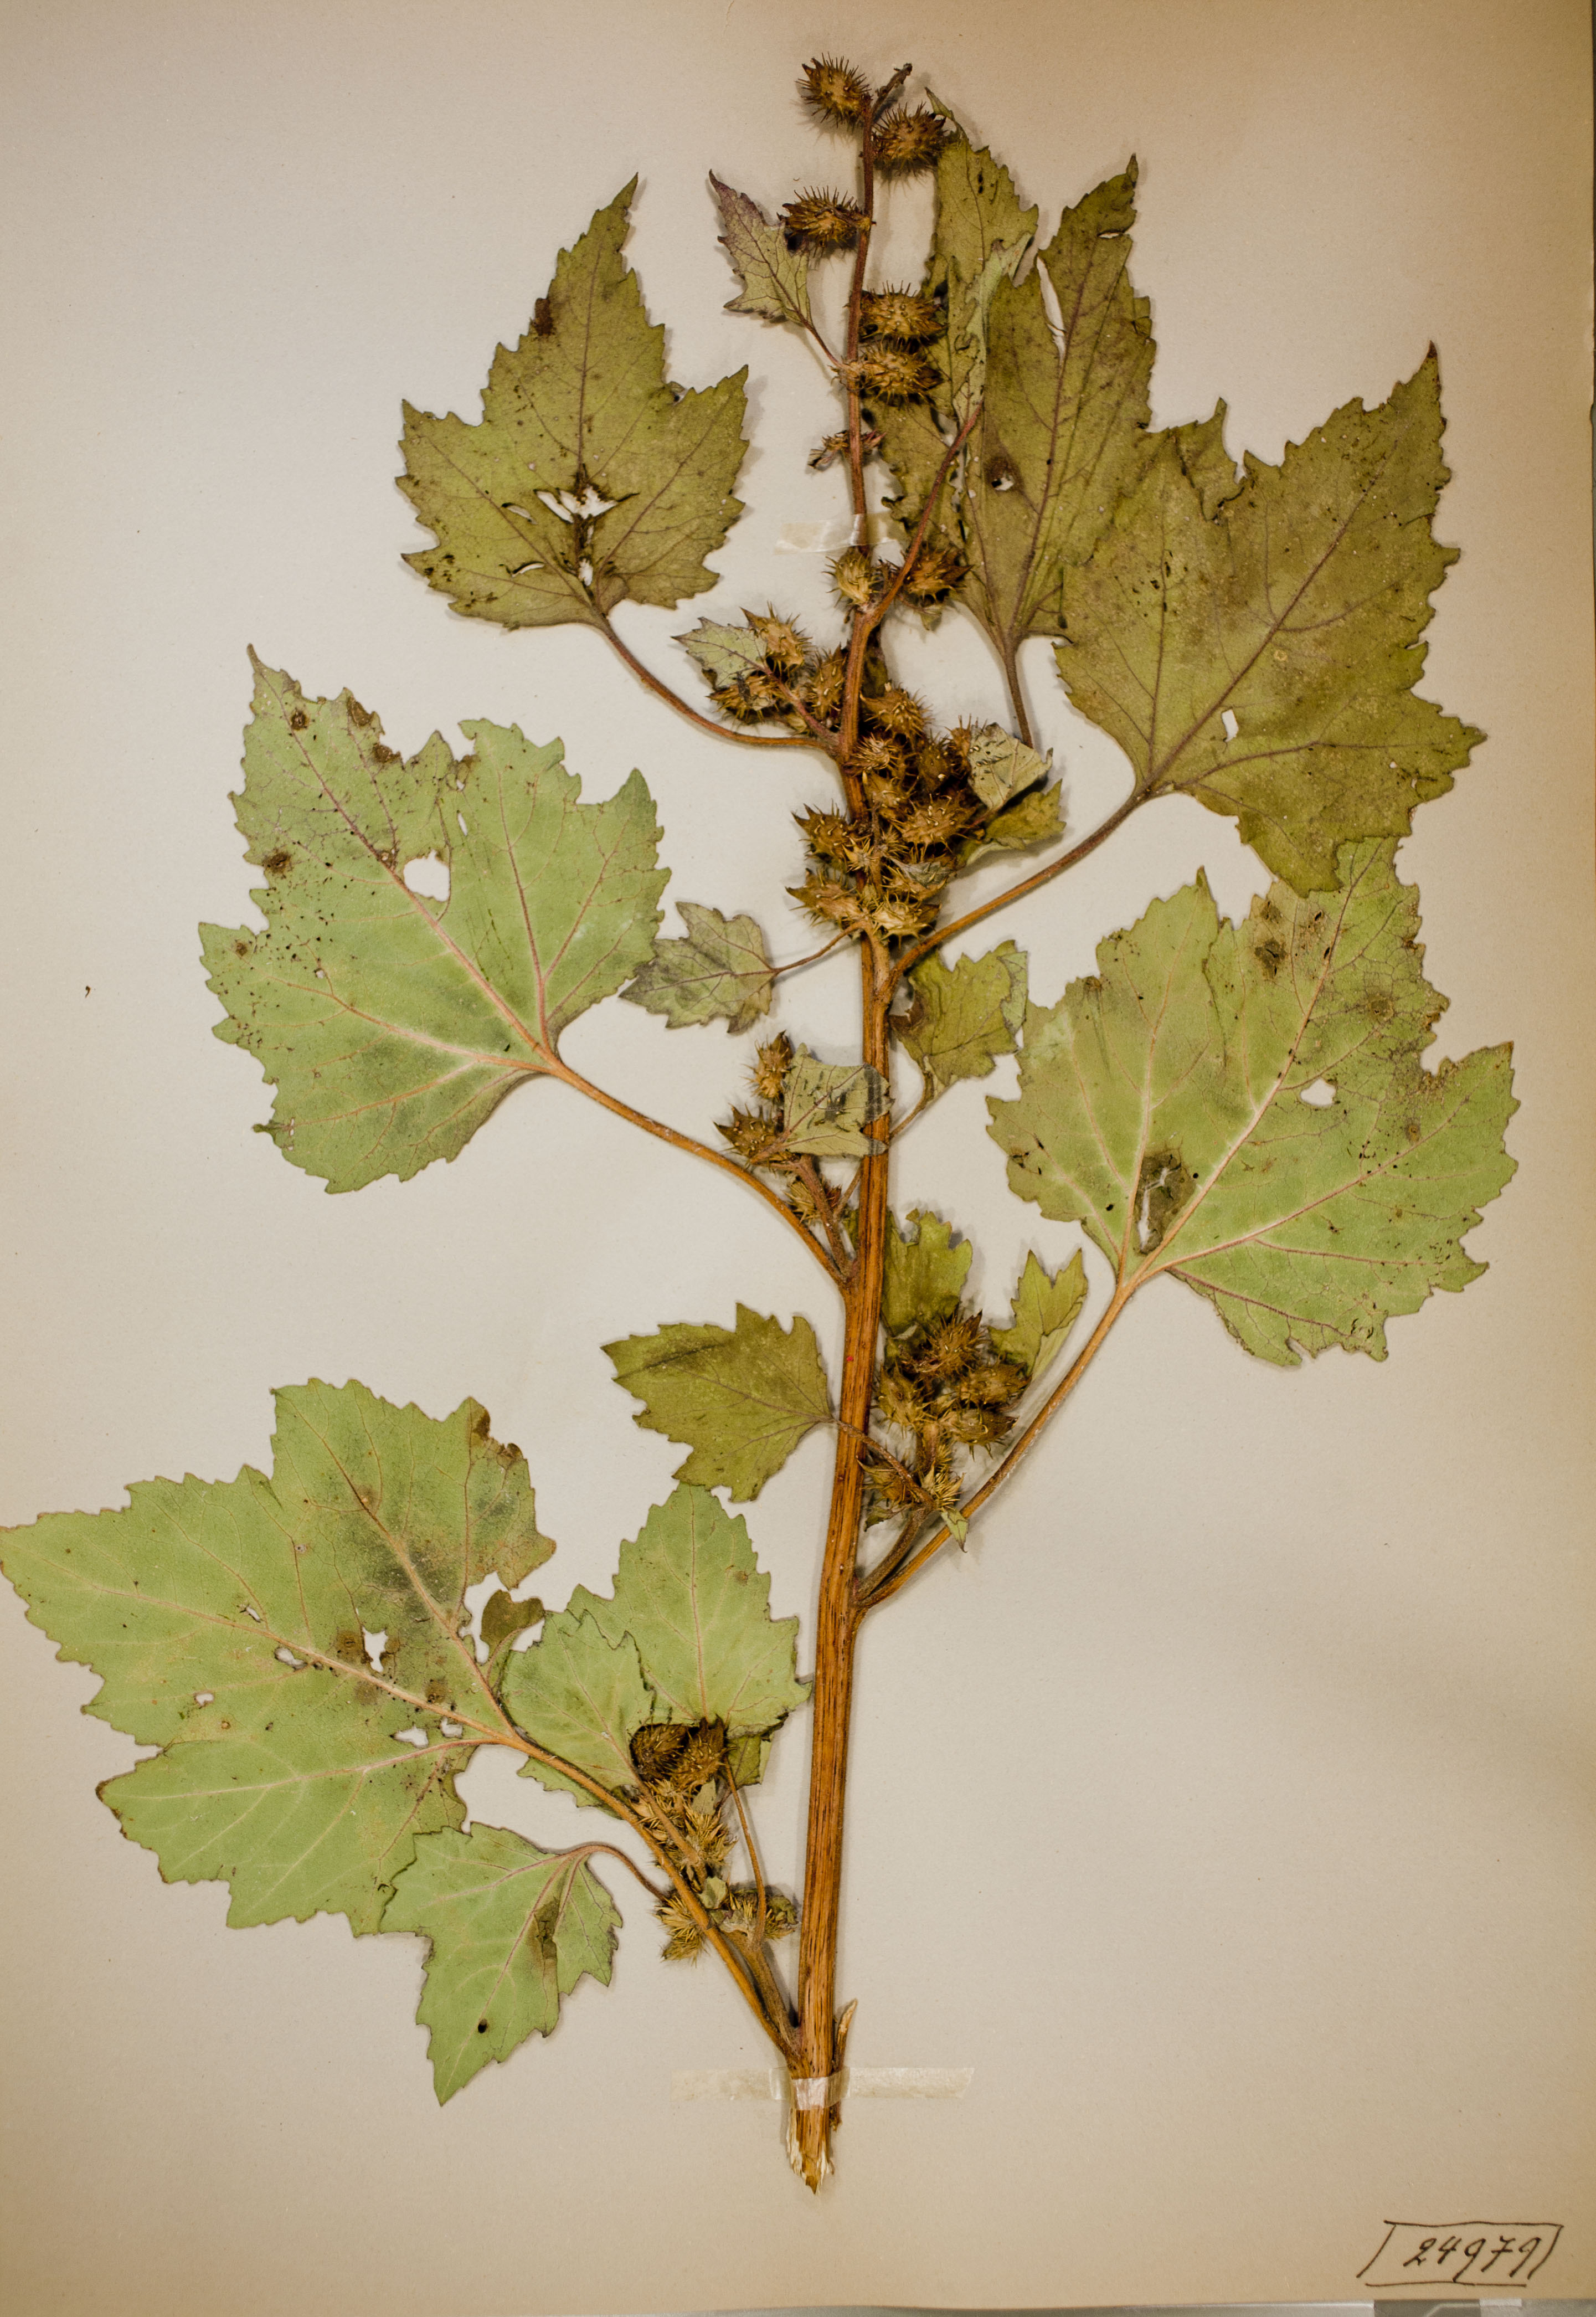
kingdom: Plantae
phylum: Tracheophyta
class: Magnoliopsida
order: Asterales
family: Asteraceae
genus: Xanthium
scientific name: Xanthium strumarium
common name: Rough cocklebur
